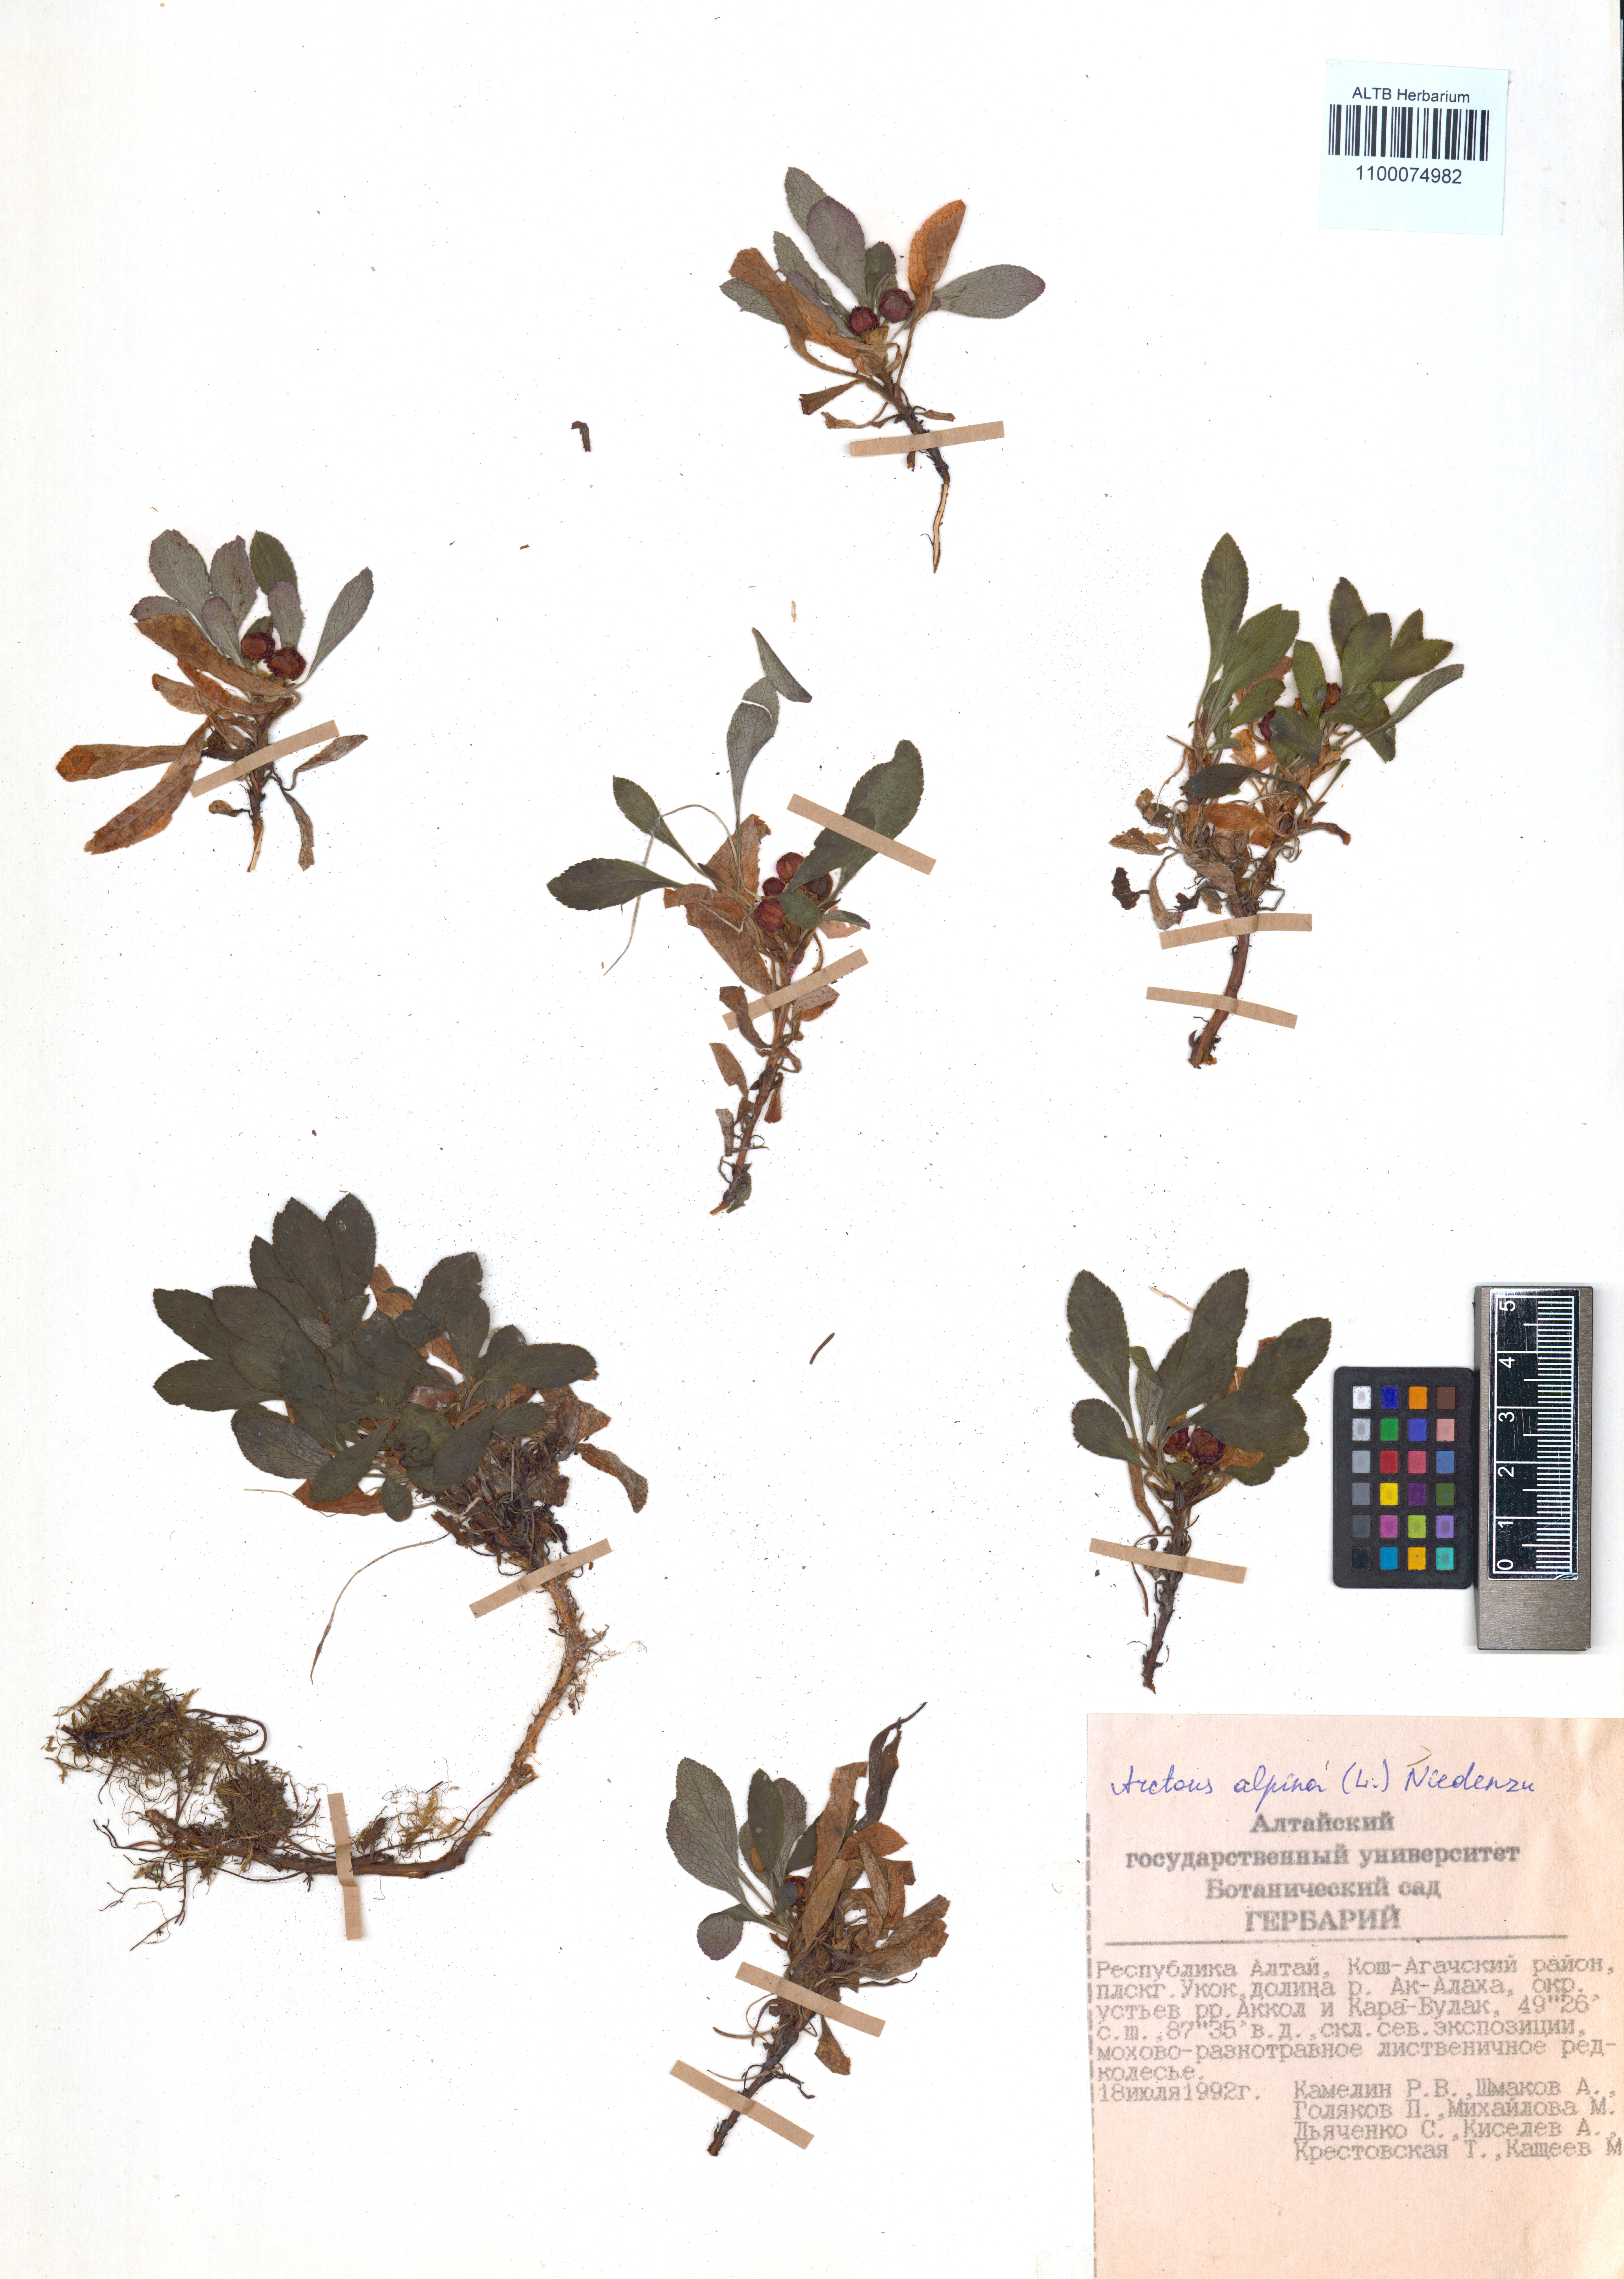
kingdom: Plantae
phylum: Tracheophyta
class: Magnoliopsida
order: Ericales
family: Ericaceae
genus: Arctostaphylos
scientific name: Arctostaphylos alpinus
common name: Alpine bearberry
